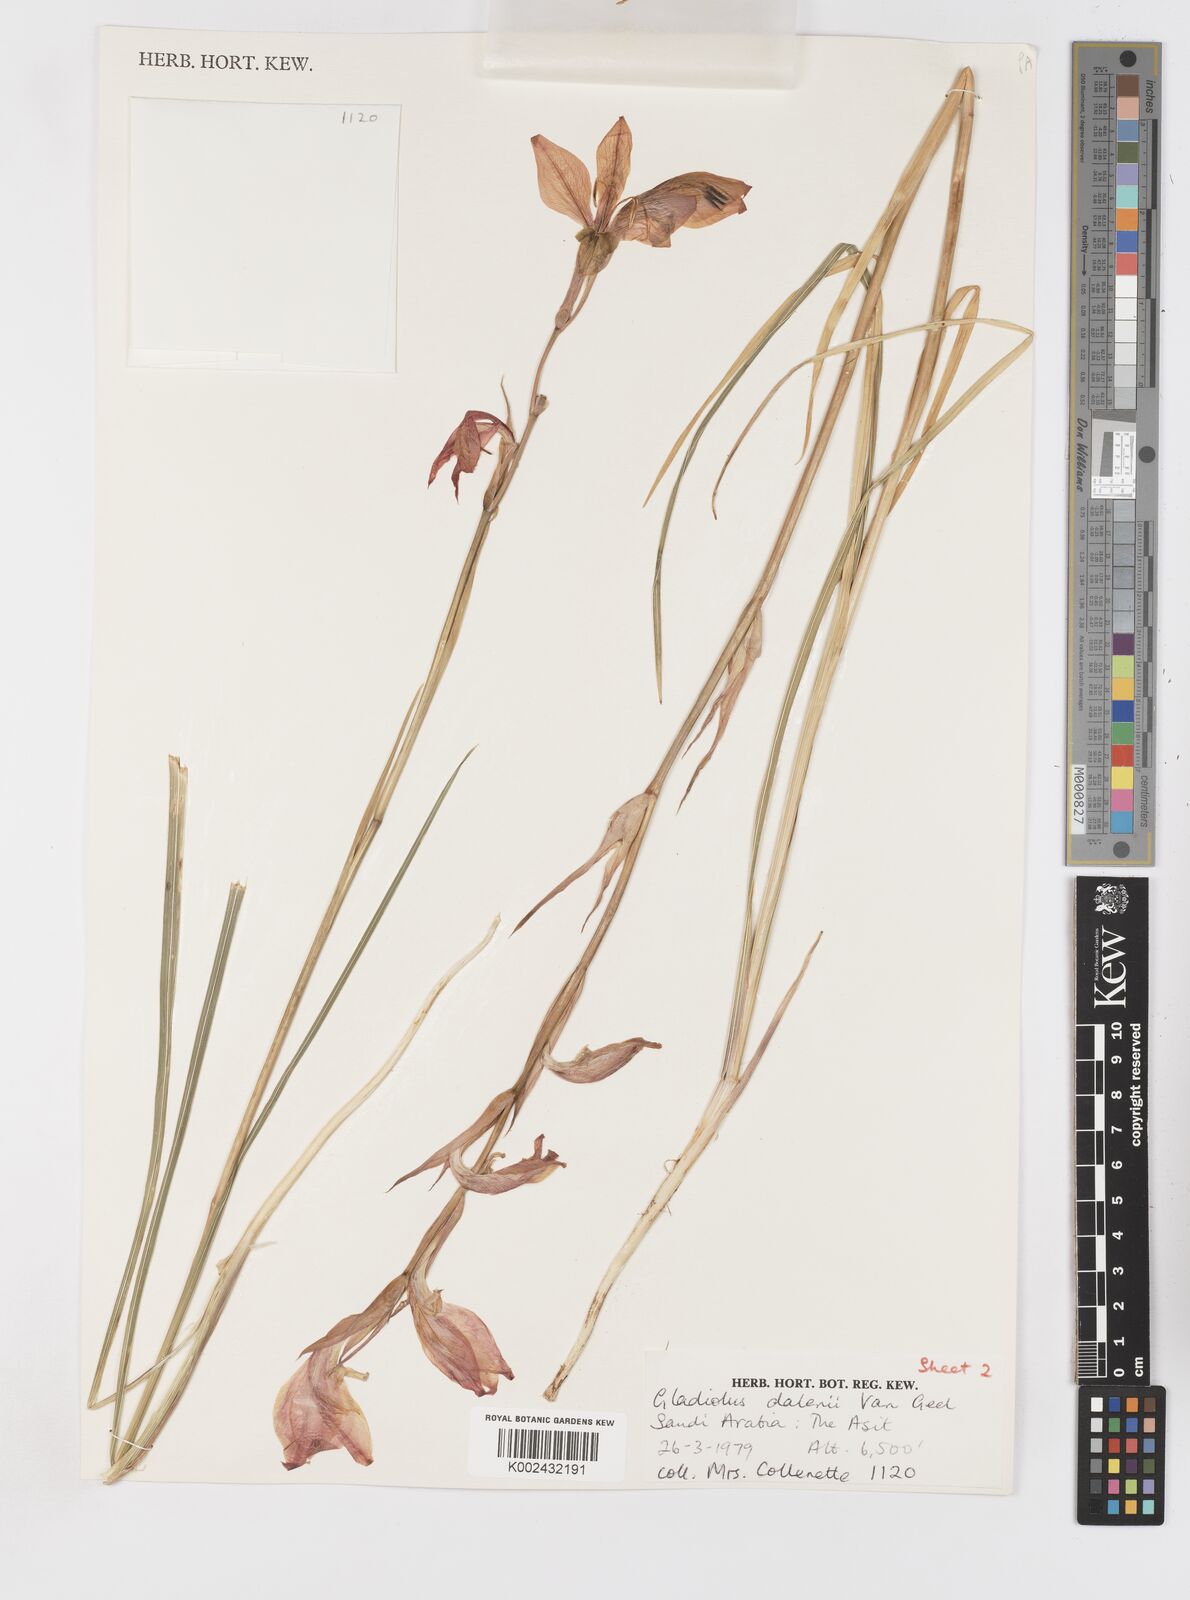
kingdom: Plantae
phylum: Tracheophyta
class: Liliopsida
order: Asparagales
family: Iridaceae
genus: Gladiolus
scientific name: Gladiolus dalenii
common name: Cornflag
